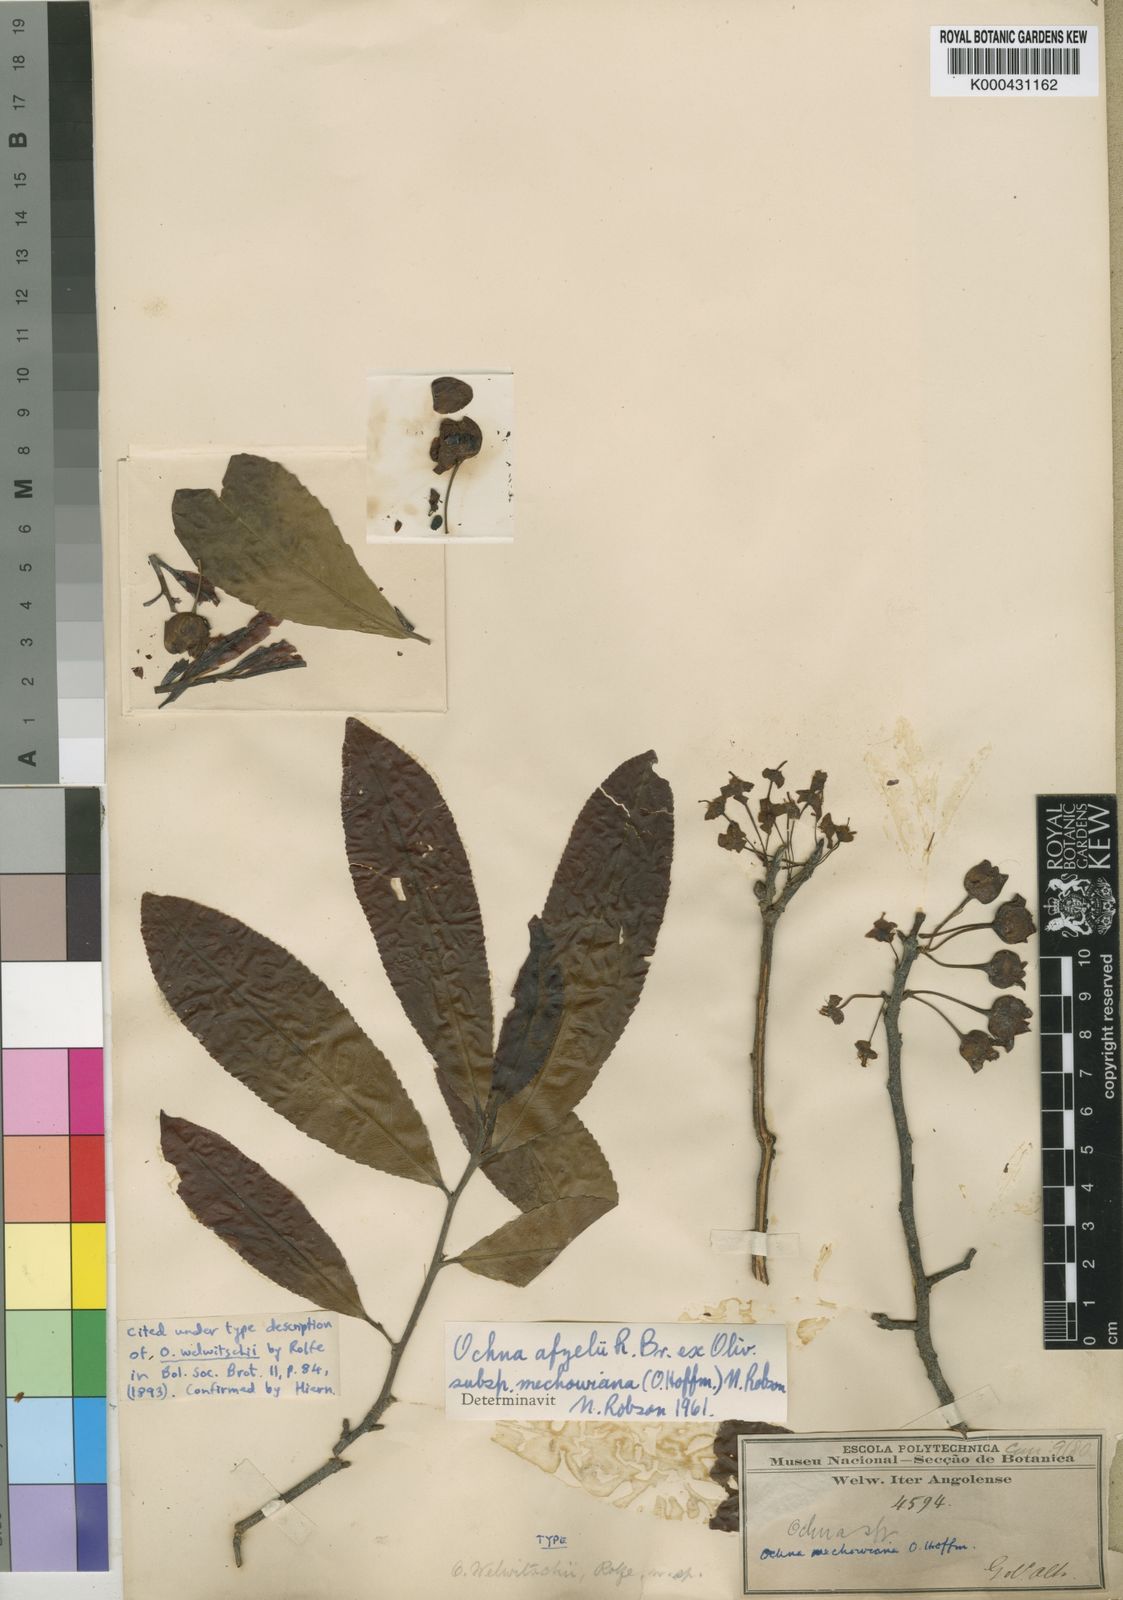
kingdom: Plantae
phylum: Tracheophyta
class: Magnoliopsida
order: Malpighiales
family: Ochnaceae
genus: Ochna
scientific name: Ochna afzelii
